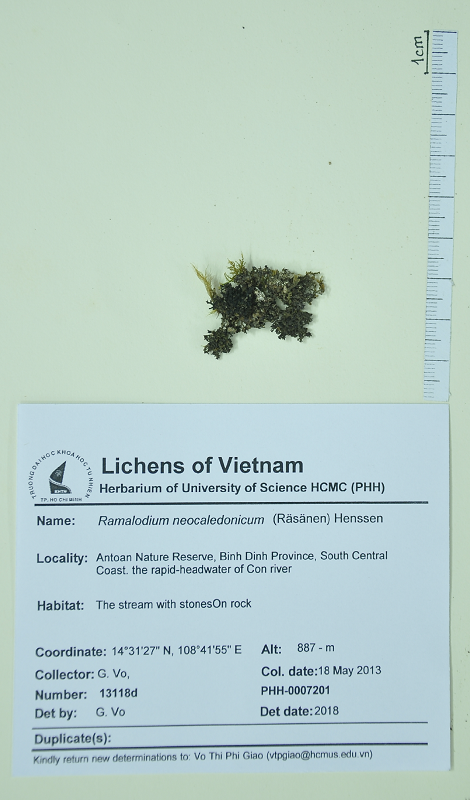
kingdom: Fungi
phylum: Ascomycota
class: Lecanoromycetes
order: Peltigerales
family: Pannariaceae
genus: Ramalodium
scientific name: Ramalodium neocaledonicum
